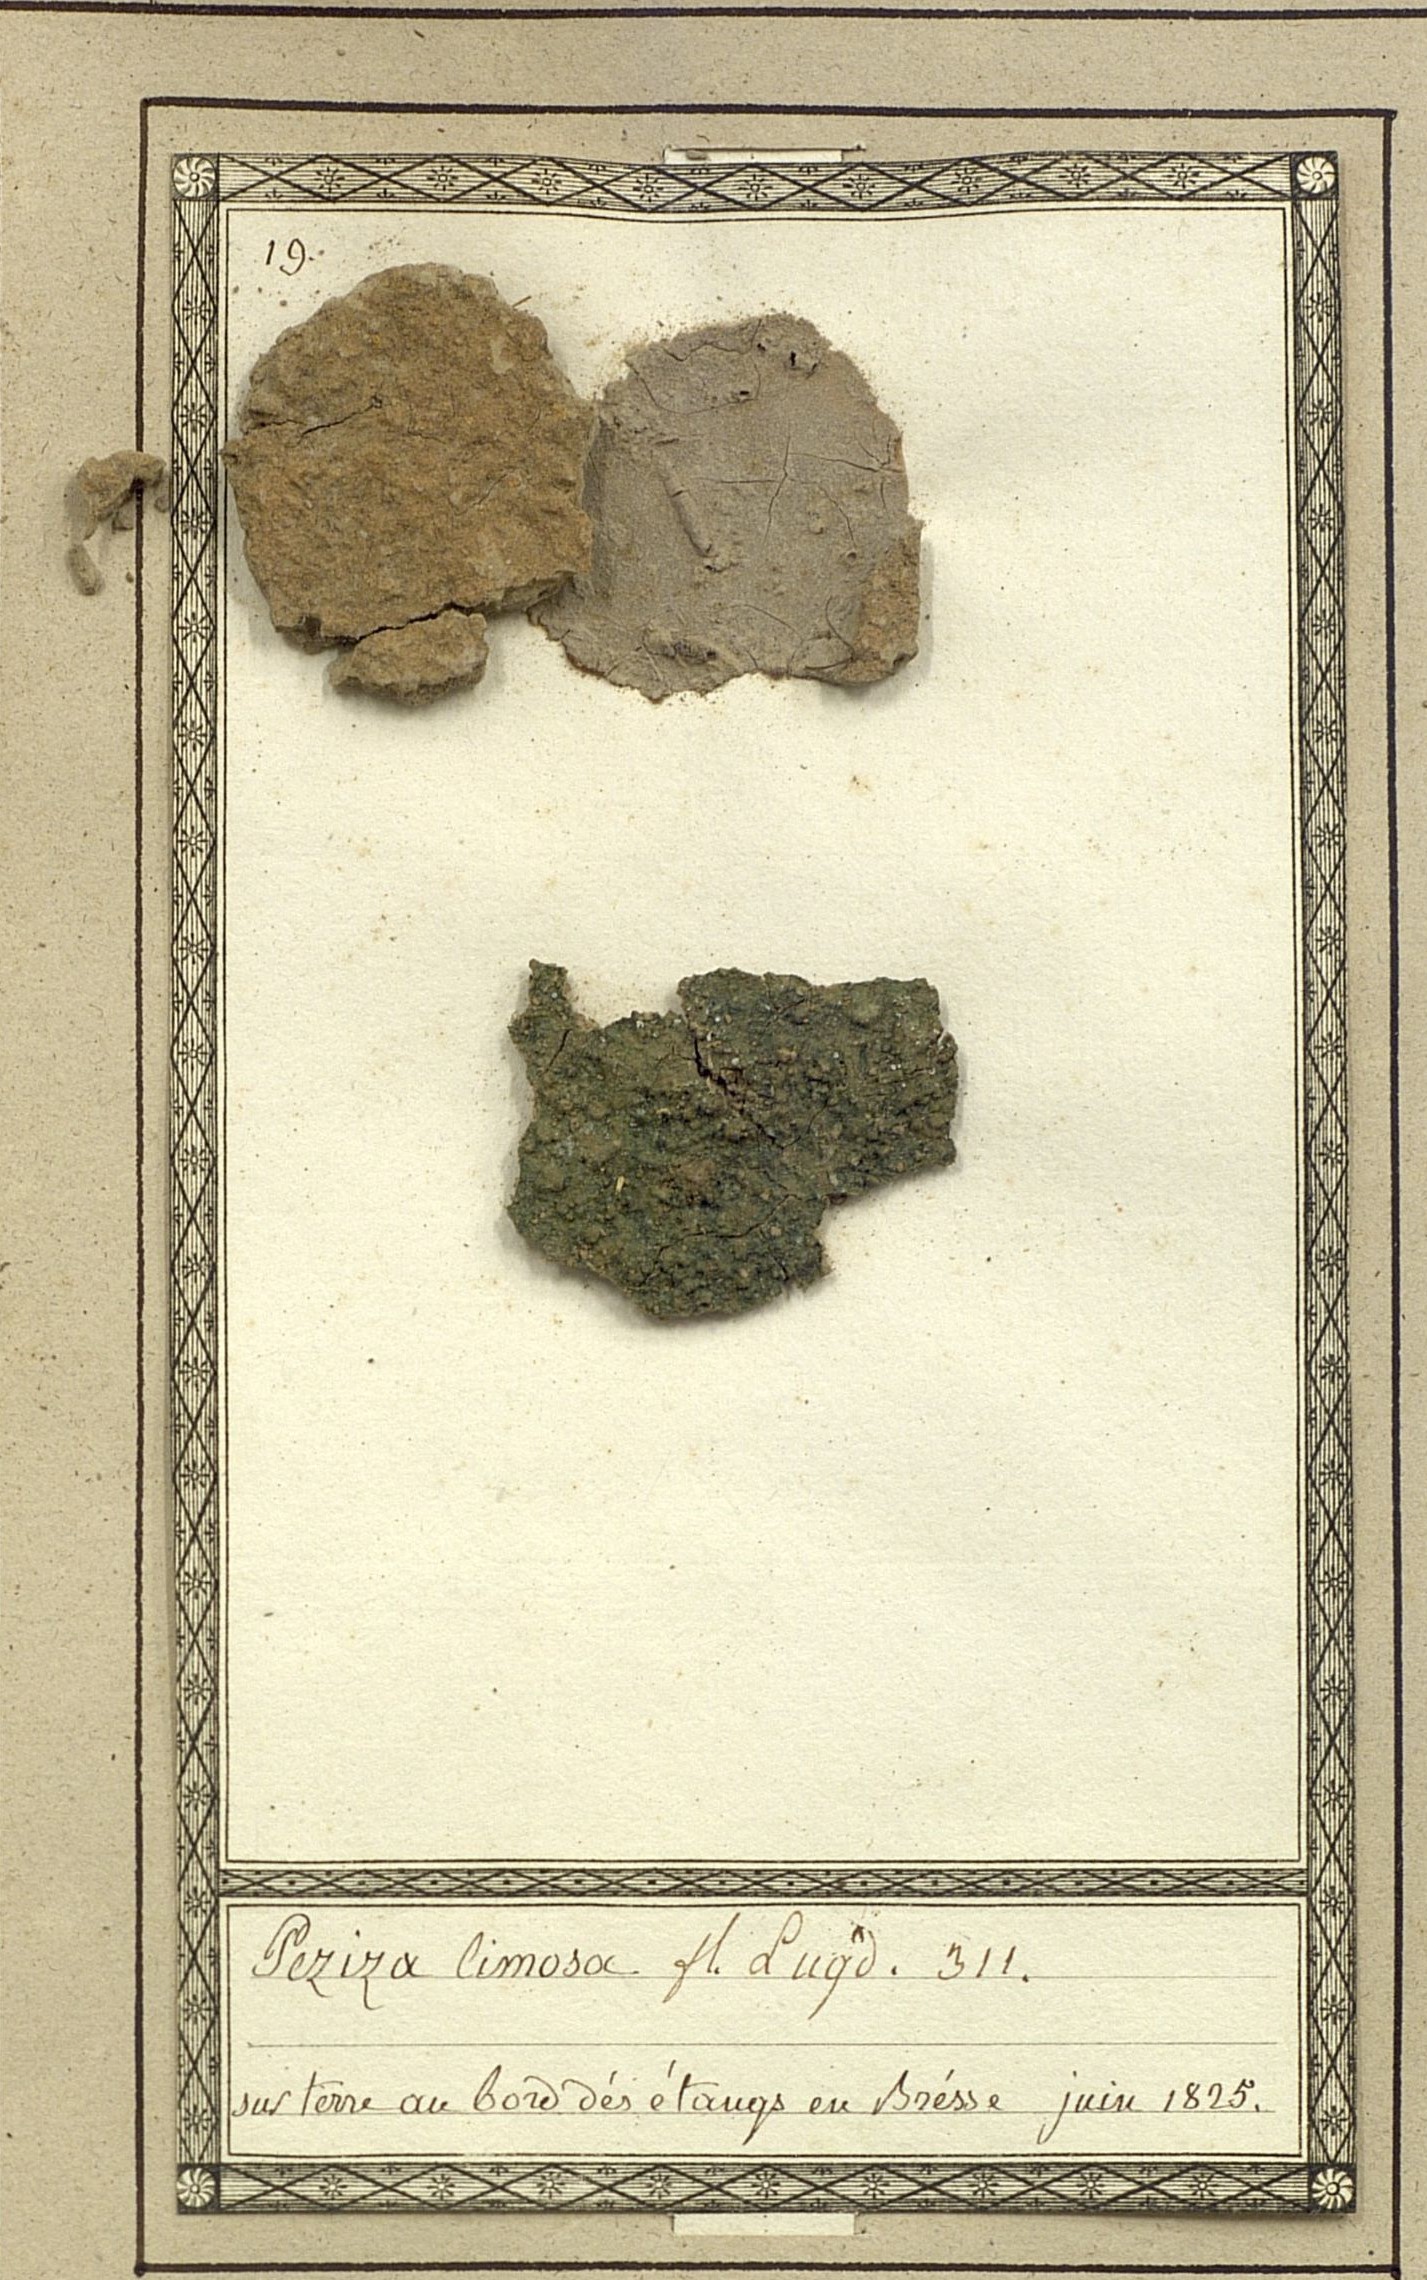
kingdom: Fungi
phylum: Ascomycota
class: Pezizomycetes
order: Pezizales
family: Pezizaceae
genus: Legaliana
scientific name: Legaliana limnaea
